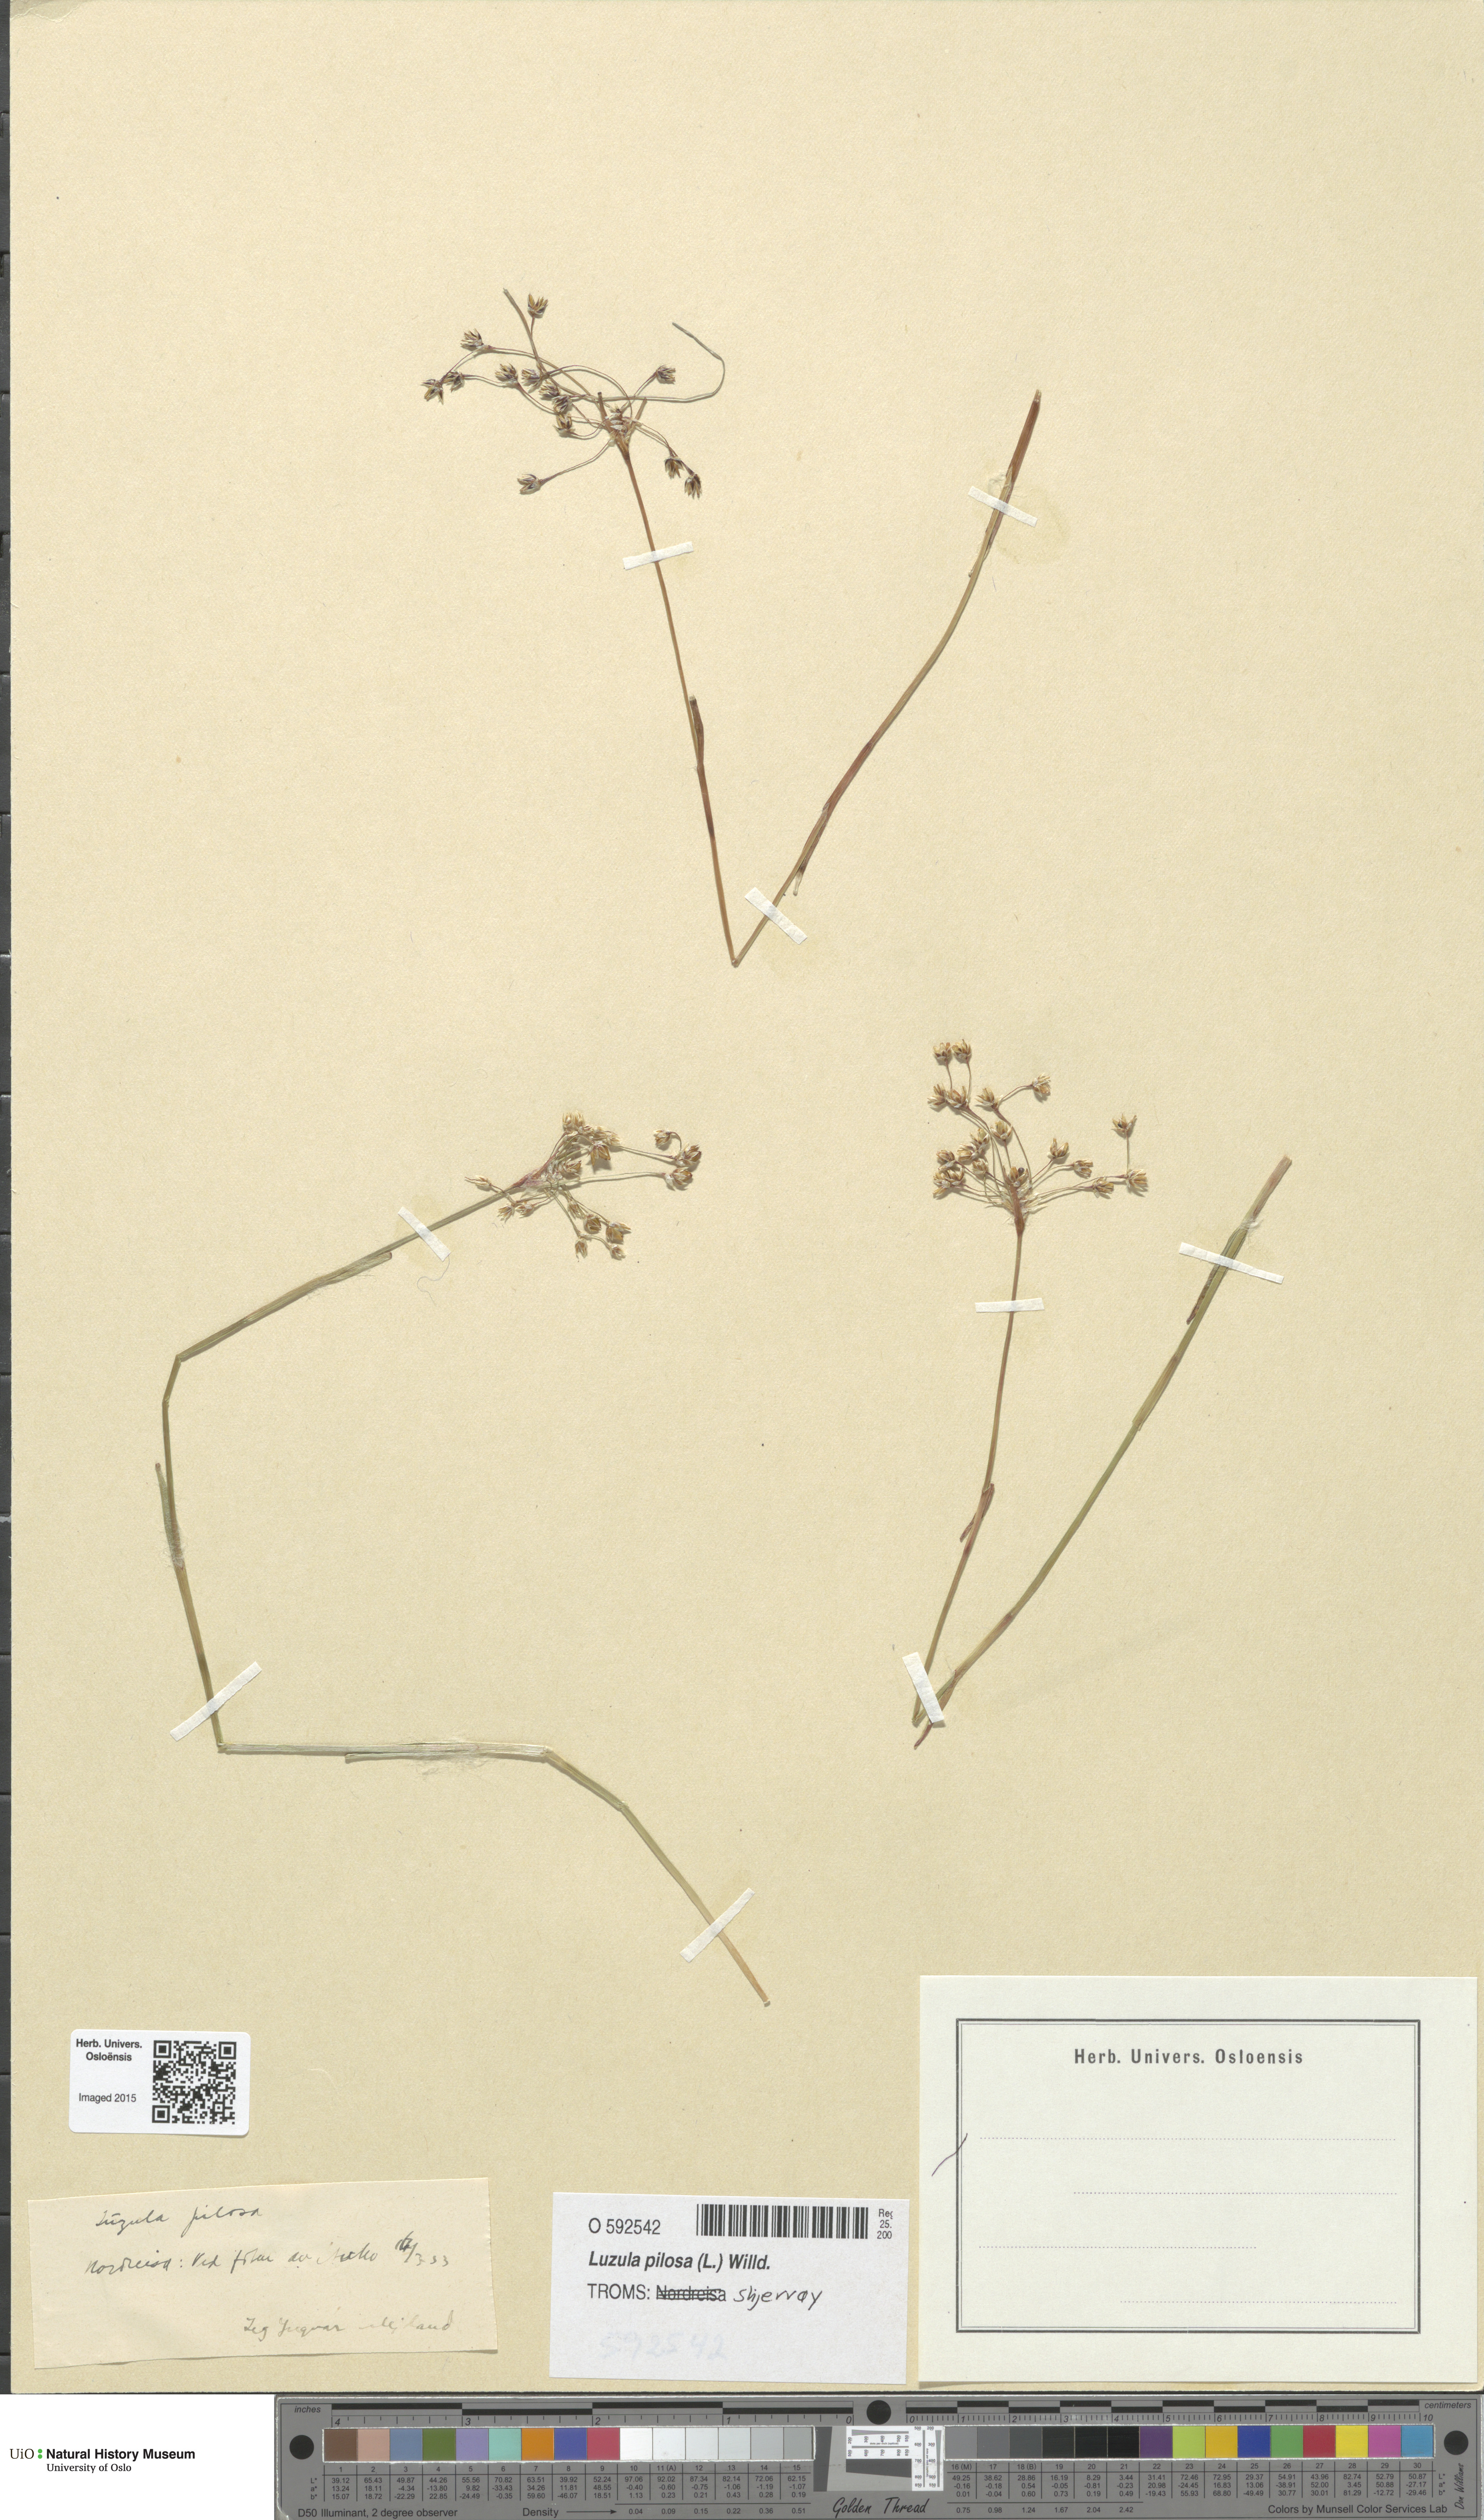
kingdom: Plantae
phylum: Tracheophyta
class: Liliopsida
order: Poales
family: Juncaceae
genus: Luzula
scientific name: Luzula pilosa
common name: Hairy wood-rush
